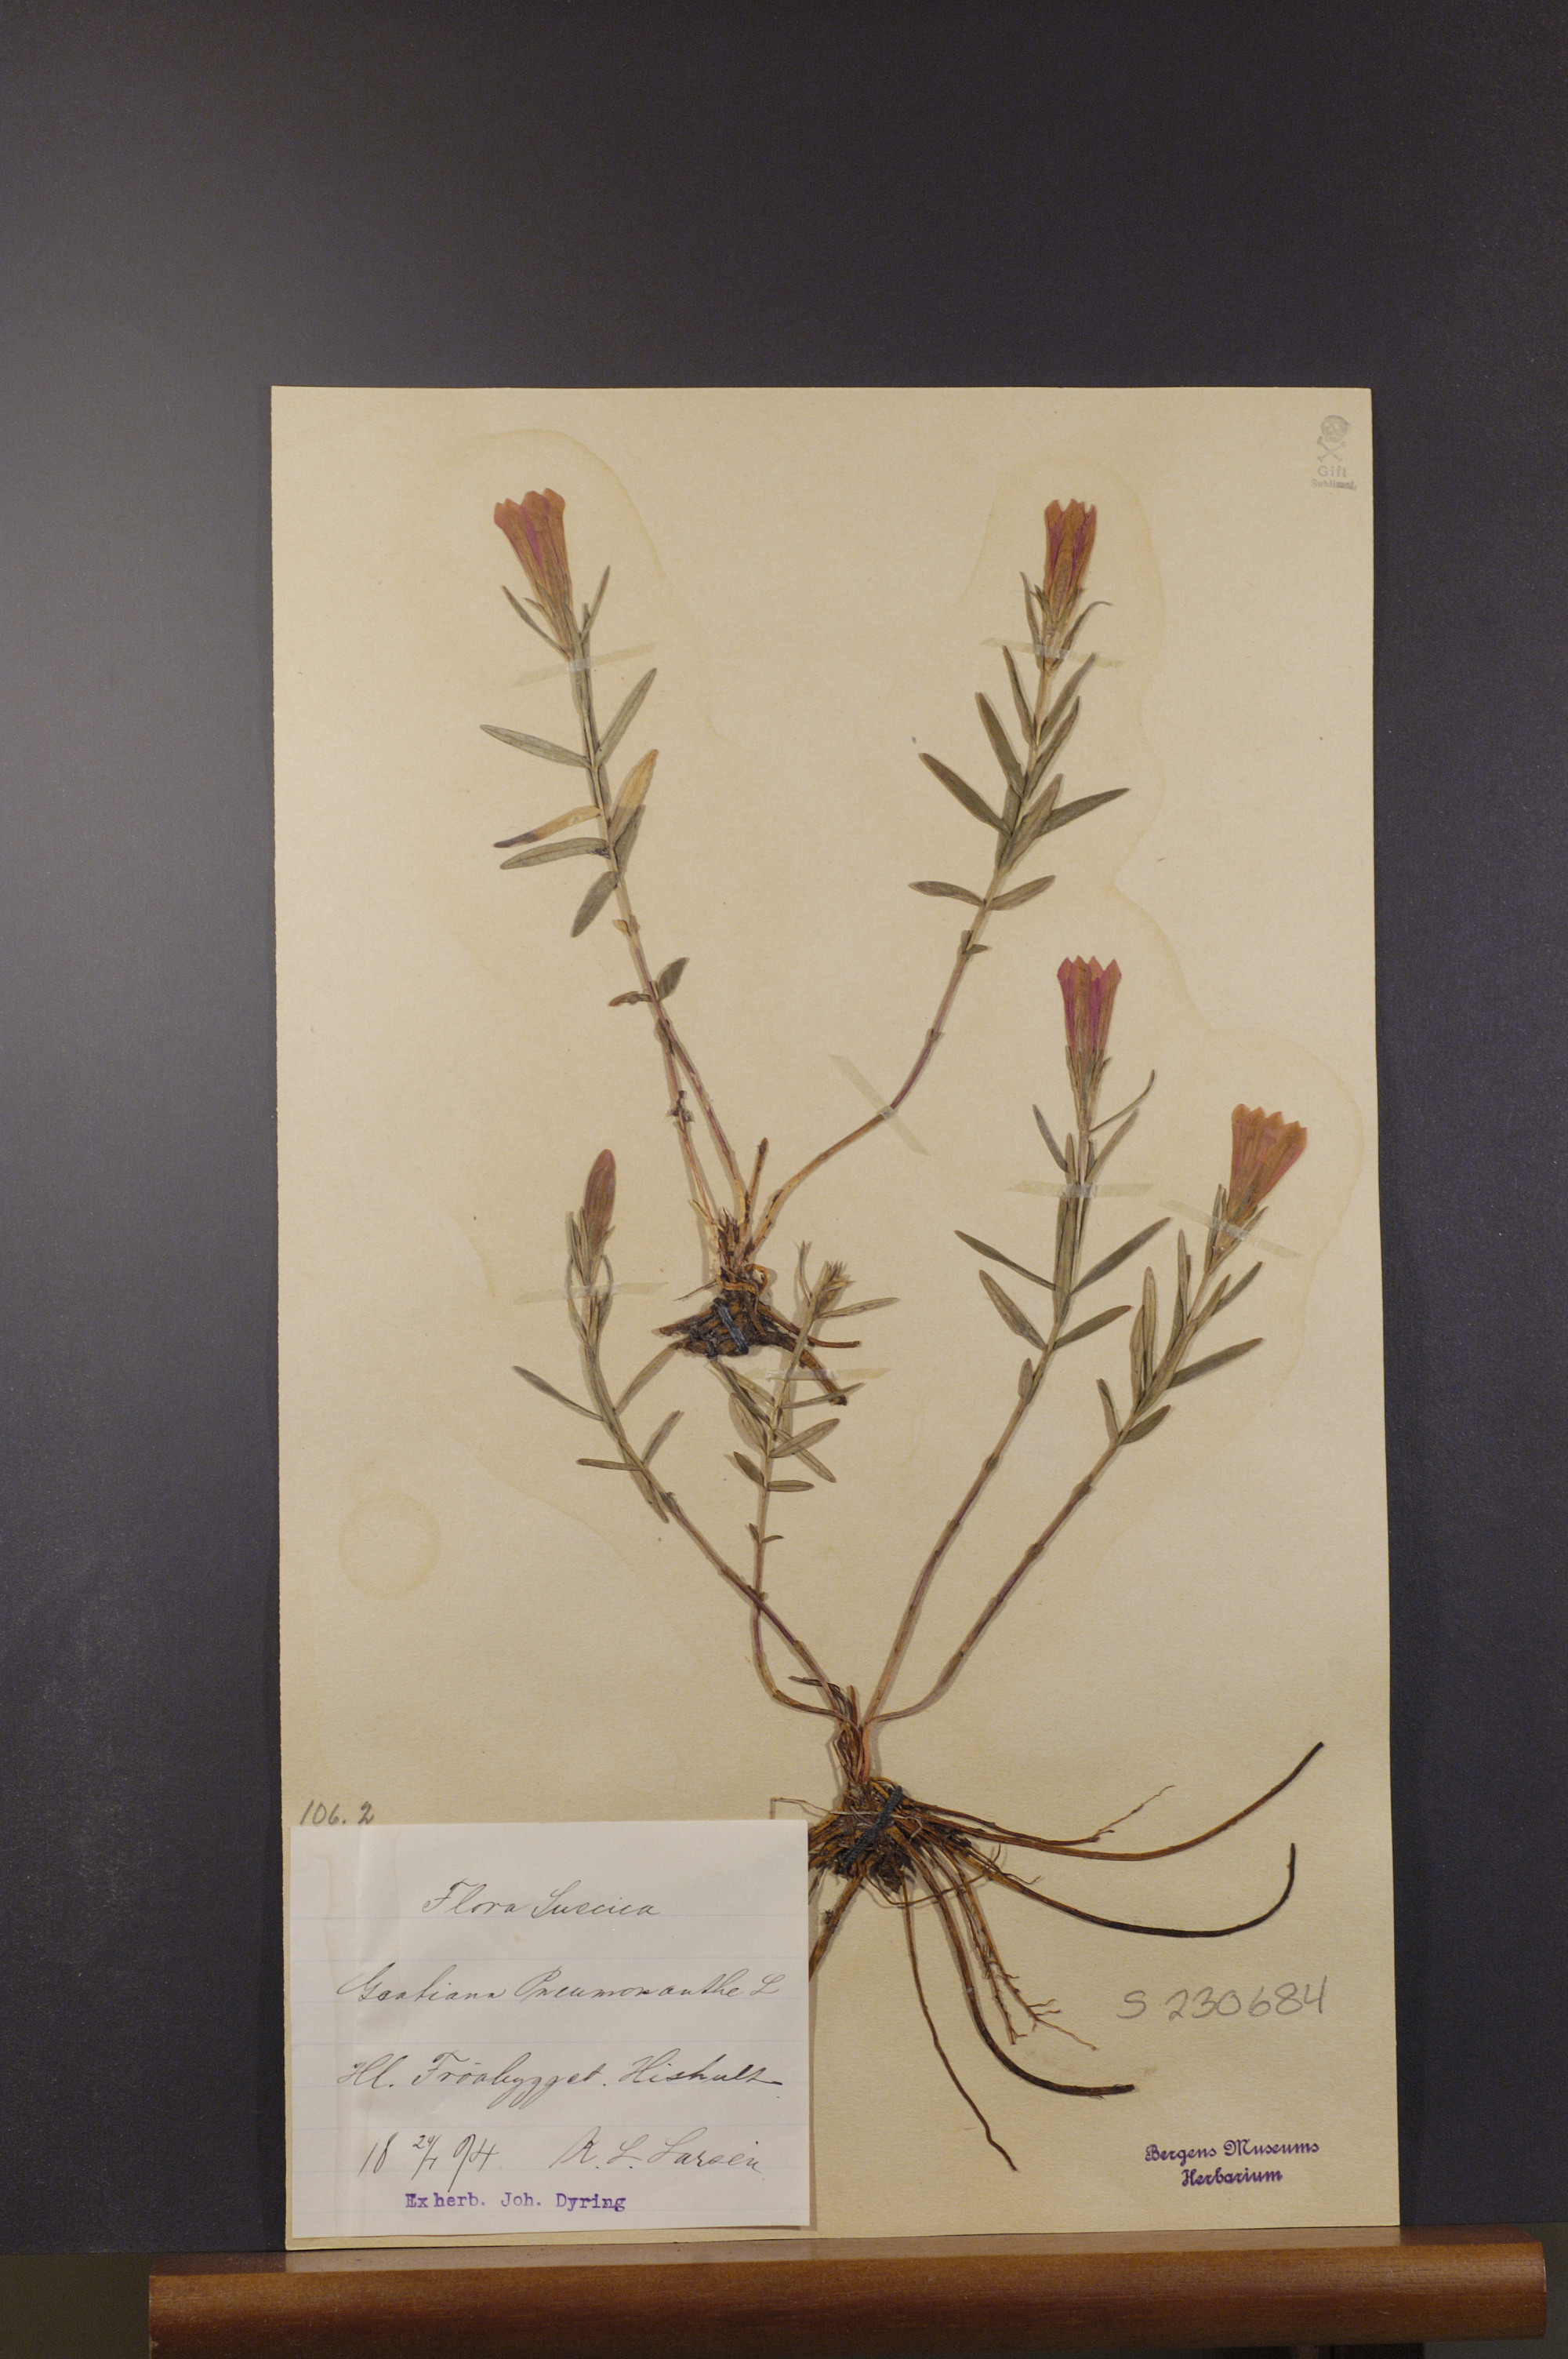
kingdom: Plantae
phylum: Tracheophyta
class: Magnoliopsida
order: Gentianales
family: Gentianaceae
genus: Gentiana
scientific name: Gentiana pneumonanthe
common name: Marsh gentian
